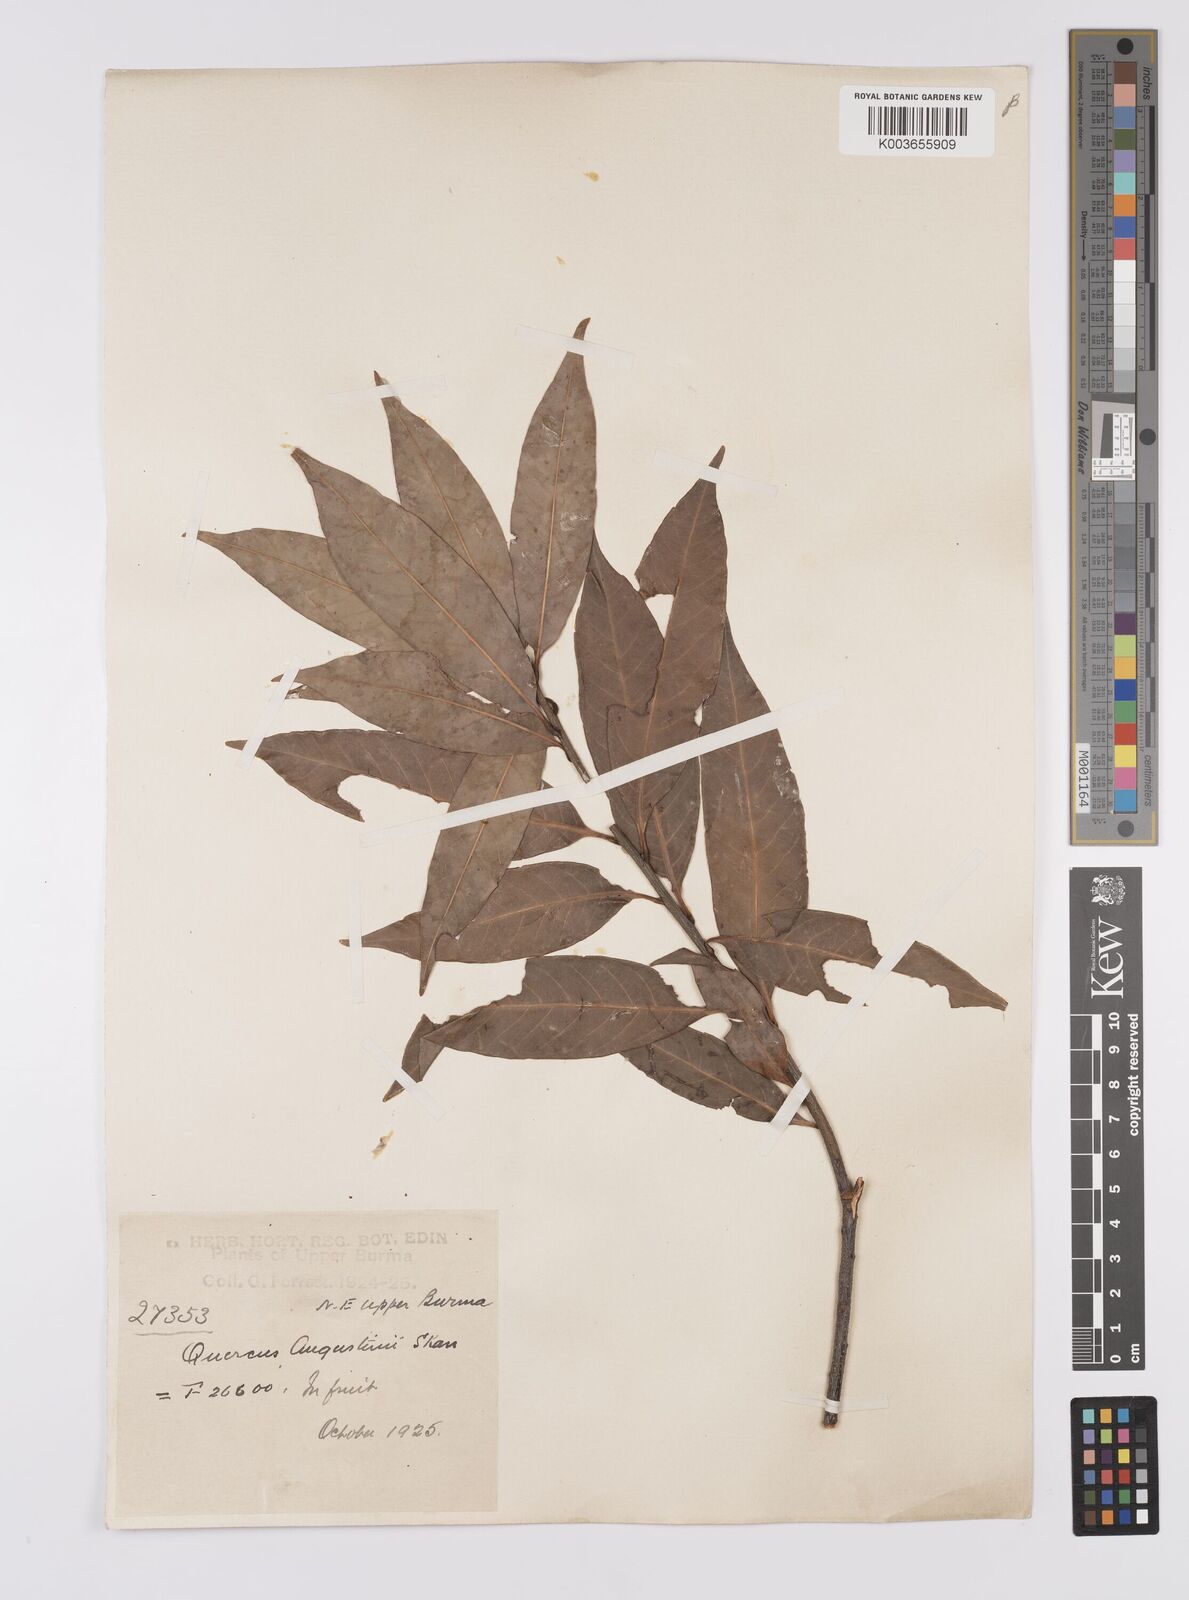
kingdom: Plantae
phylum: Tracheophyta
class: Magnoliopsida
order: Fagales
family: Fagaceae
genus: Quercus
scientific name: Quercus augustini
